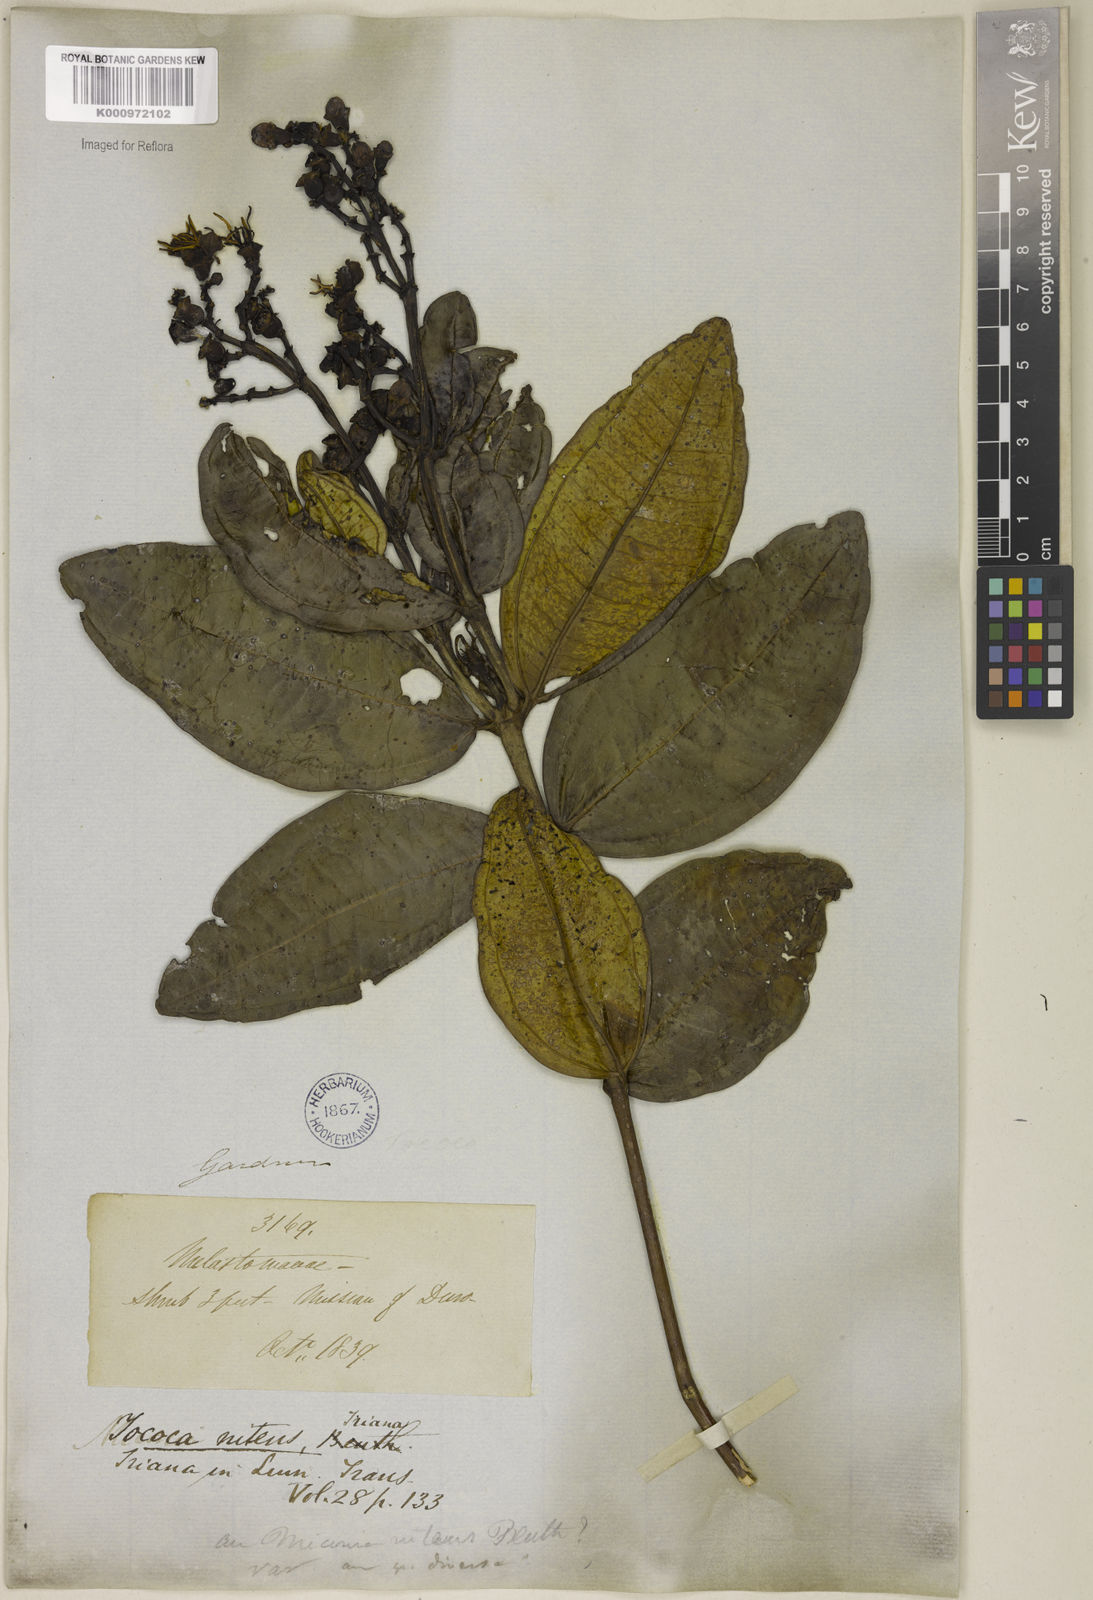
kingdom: Plantae
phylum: Tracheophyta
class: Magnoliopsida
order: Myrtales
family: Melastomataceae
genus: Miconia
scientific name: Miconia nitens
